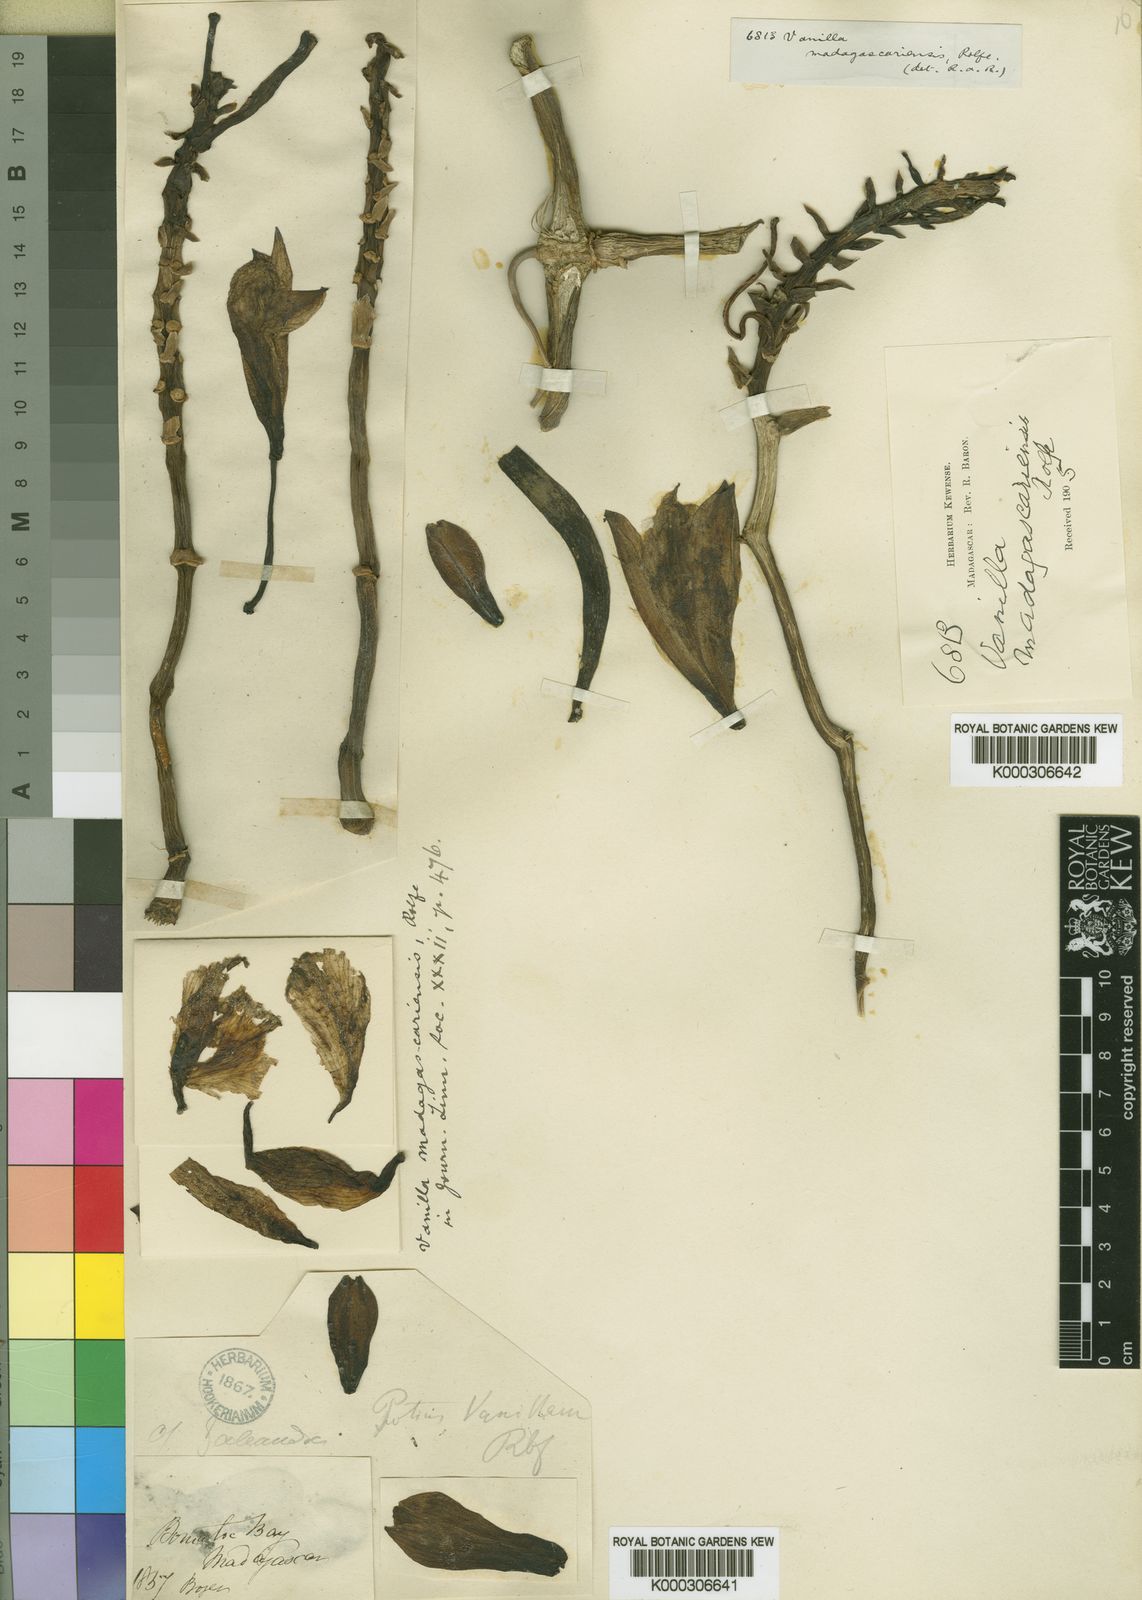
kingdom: Plantae
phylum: Tracheophyta
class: Liliopsida
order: Asparagales
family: Orchidaceae
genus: Vanilla
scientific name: Vanilla madagascariensis
